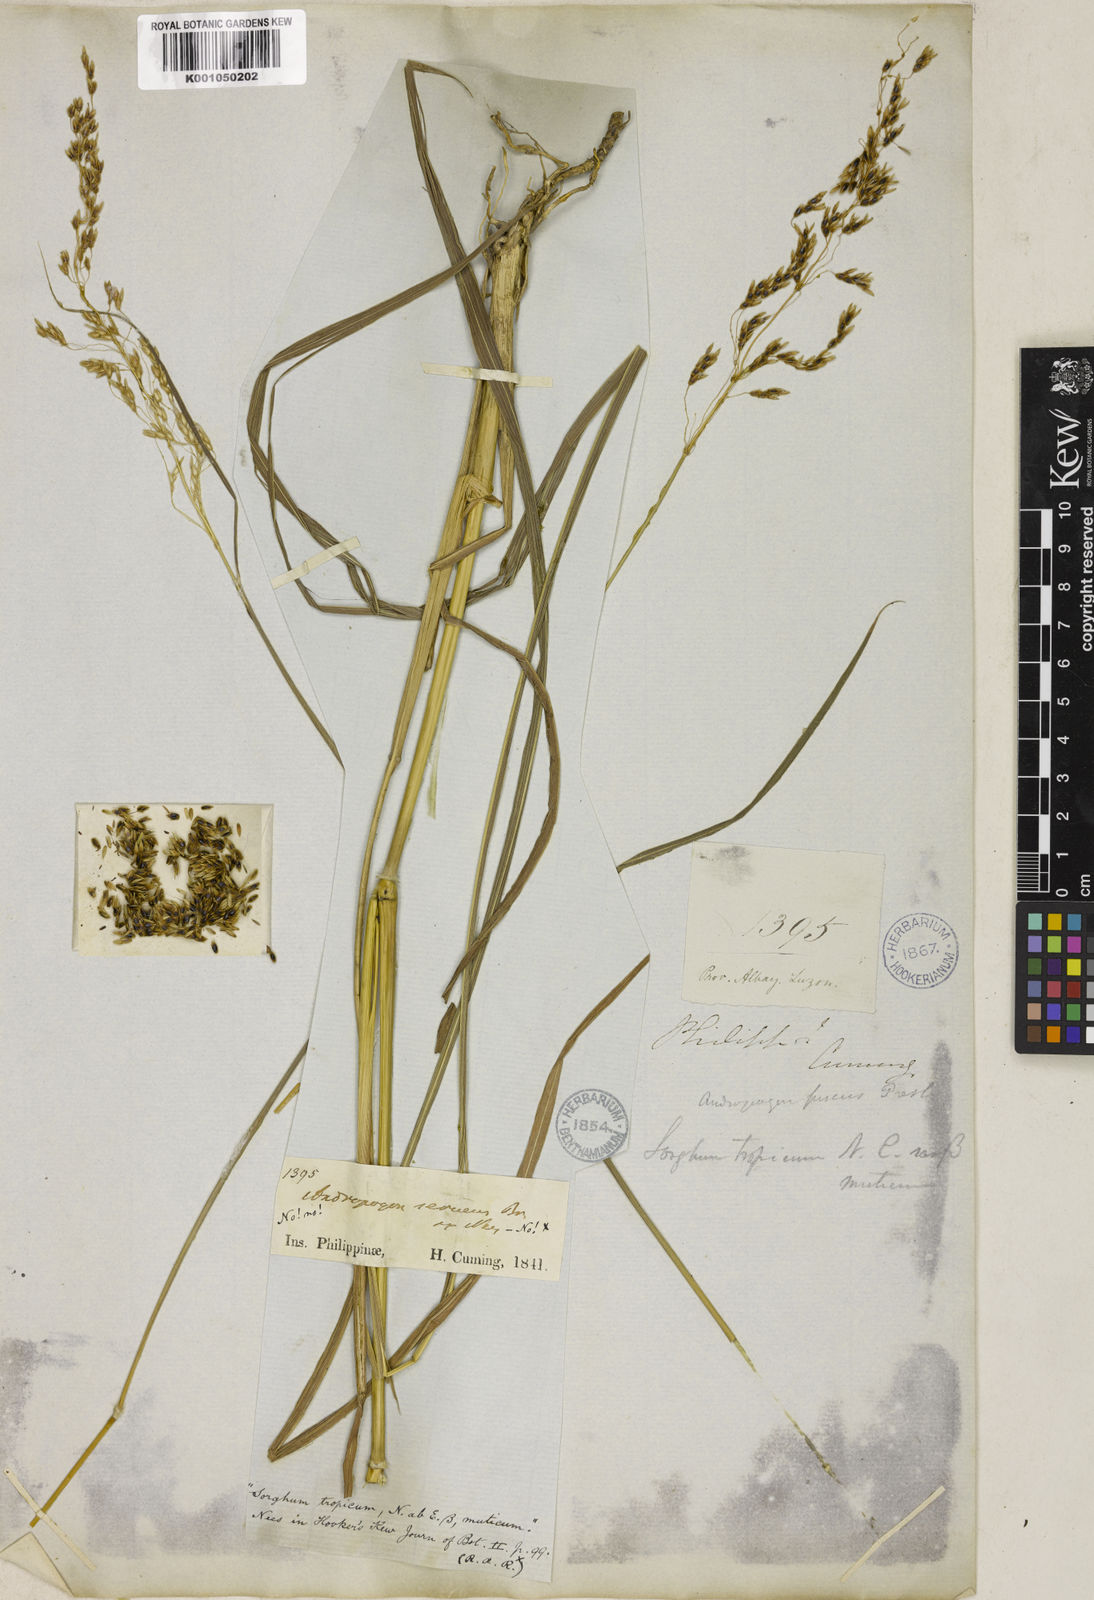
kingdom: Plantae
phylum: Tracheophyta
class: Liliopsida
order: Poales
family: Poaceae
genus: Sorghum
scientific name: Sorghum nitidum
